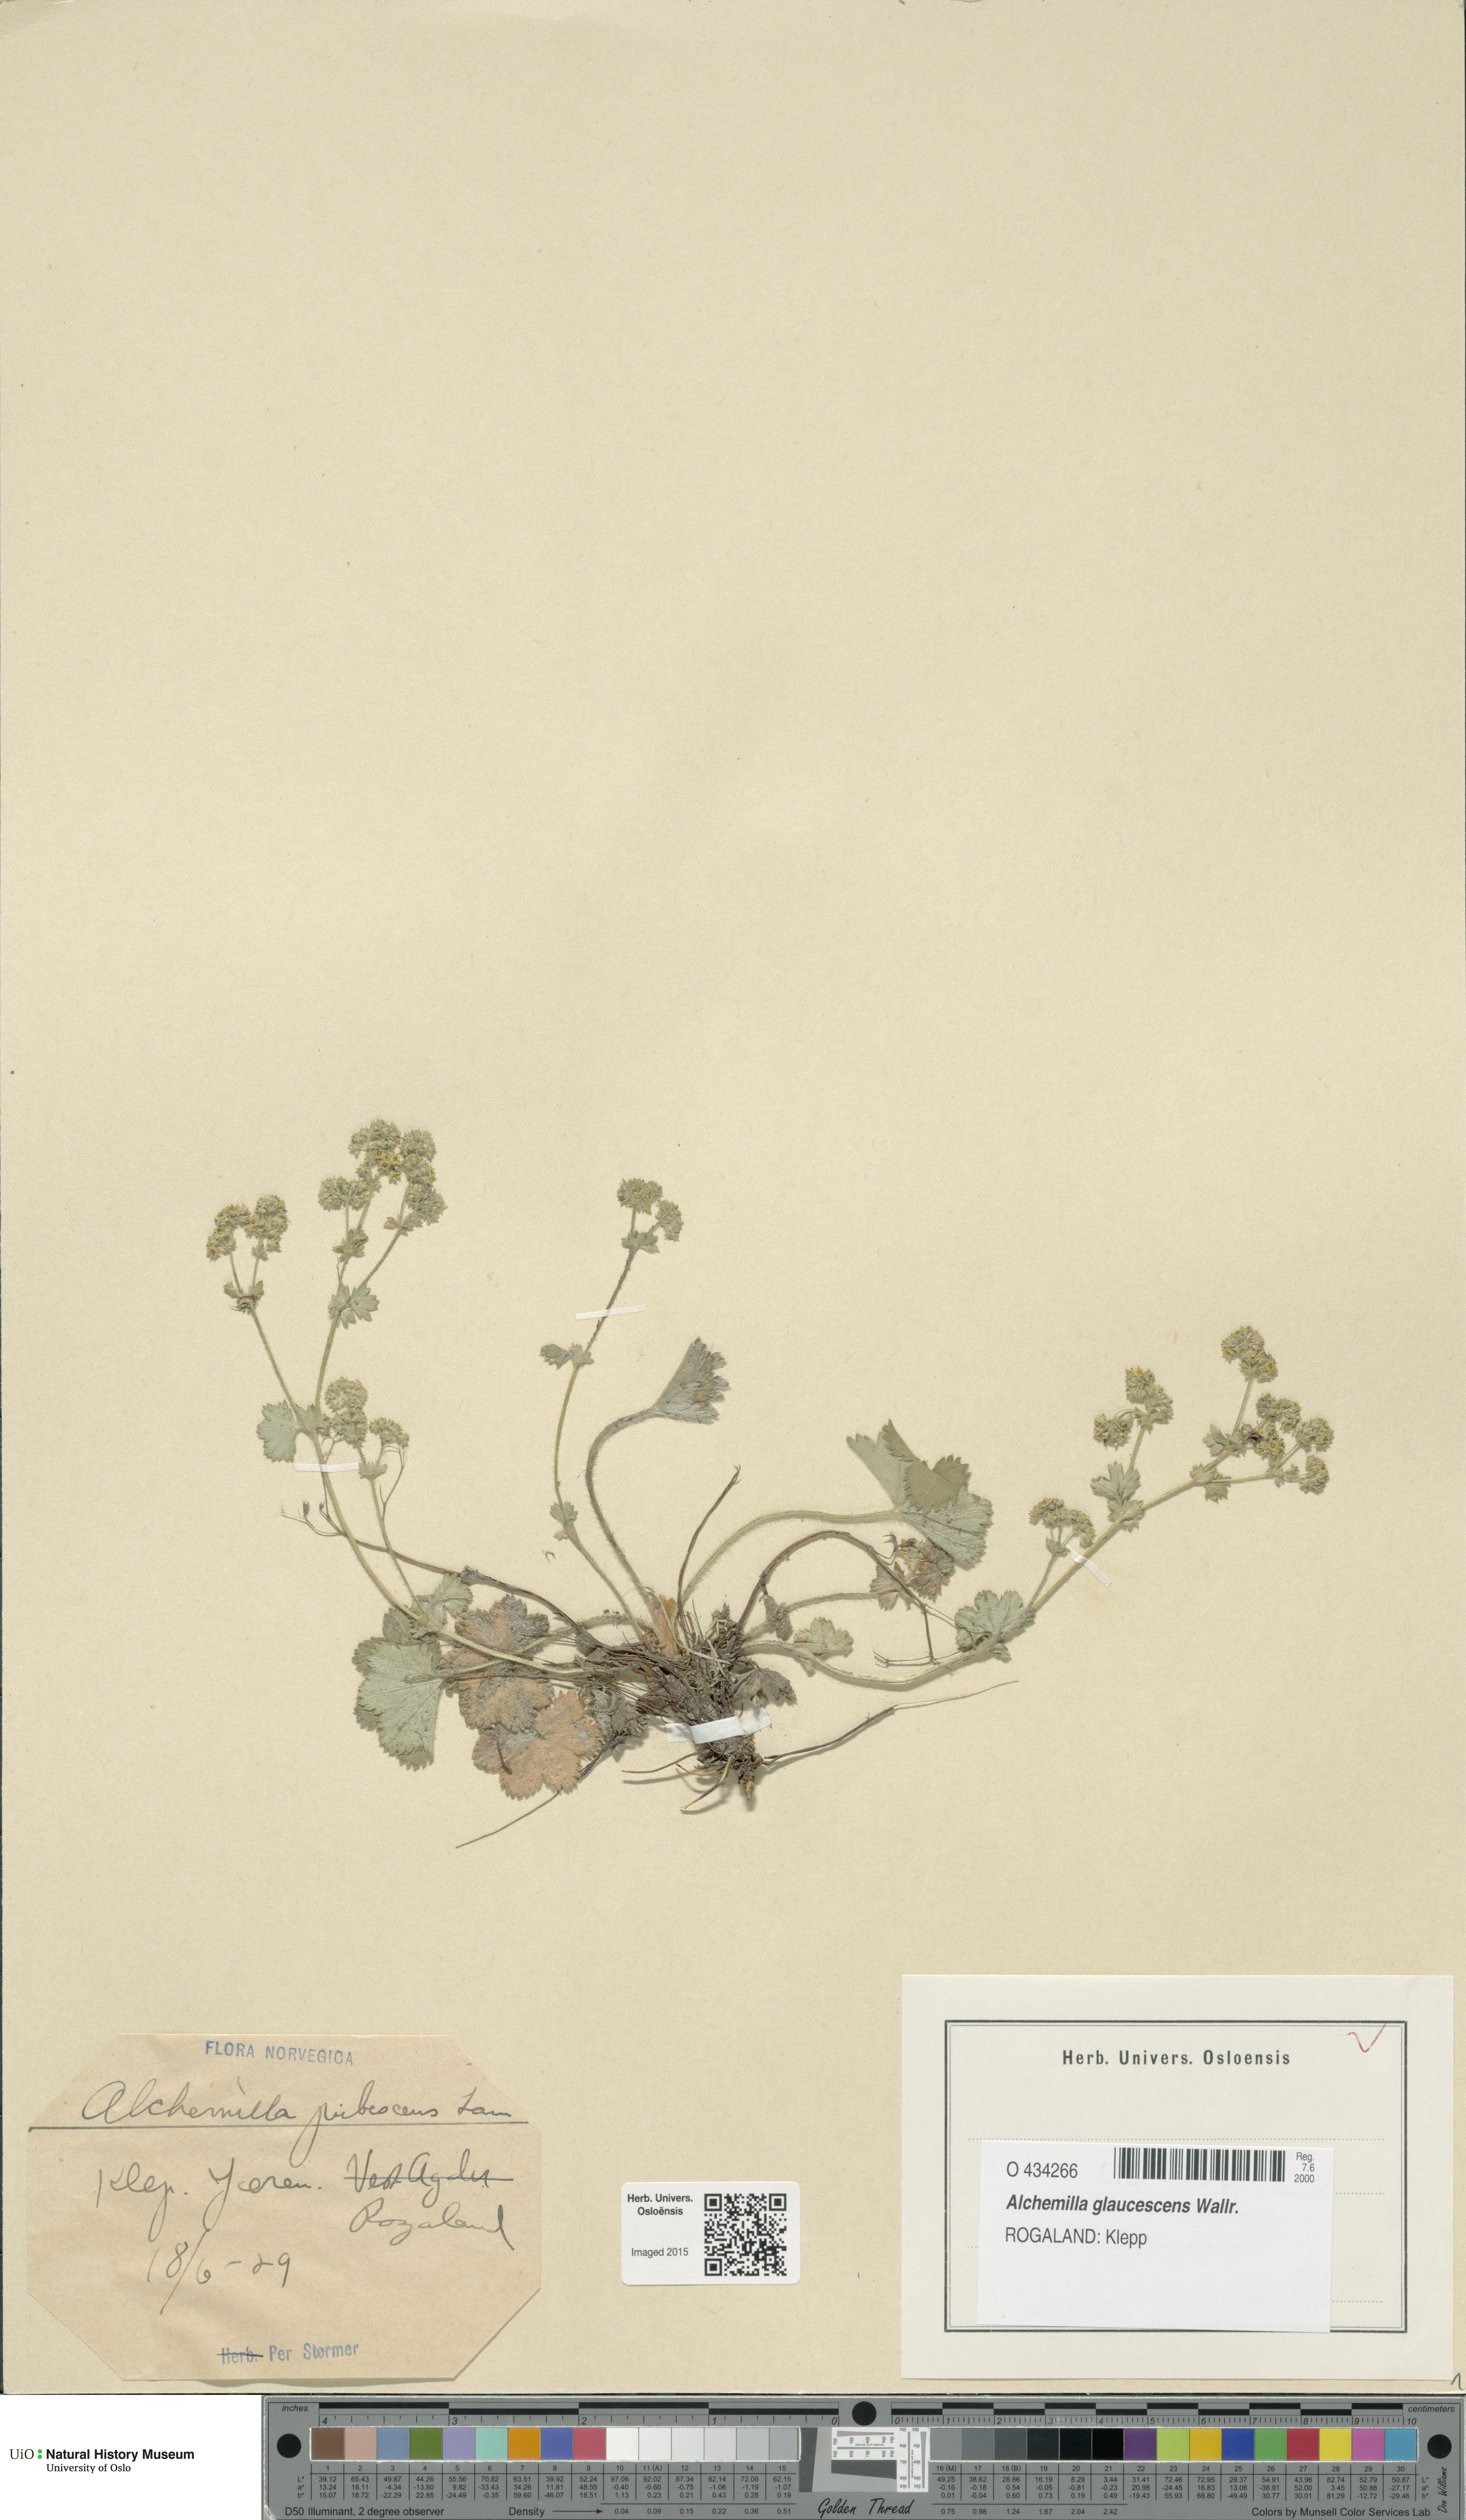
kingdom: Plantae
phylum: Tracheophyta
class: Magnoliopsida
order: Rosales
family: Rosaceae
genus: Alchemilla
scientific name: Alchemilla glaucescens
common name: Silky lady's mantle
